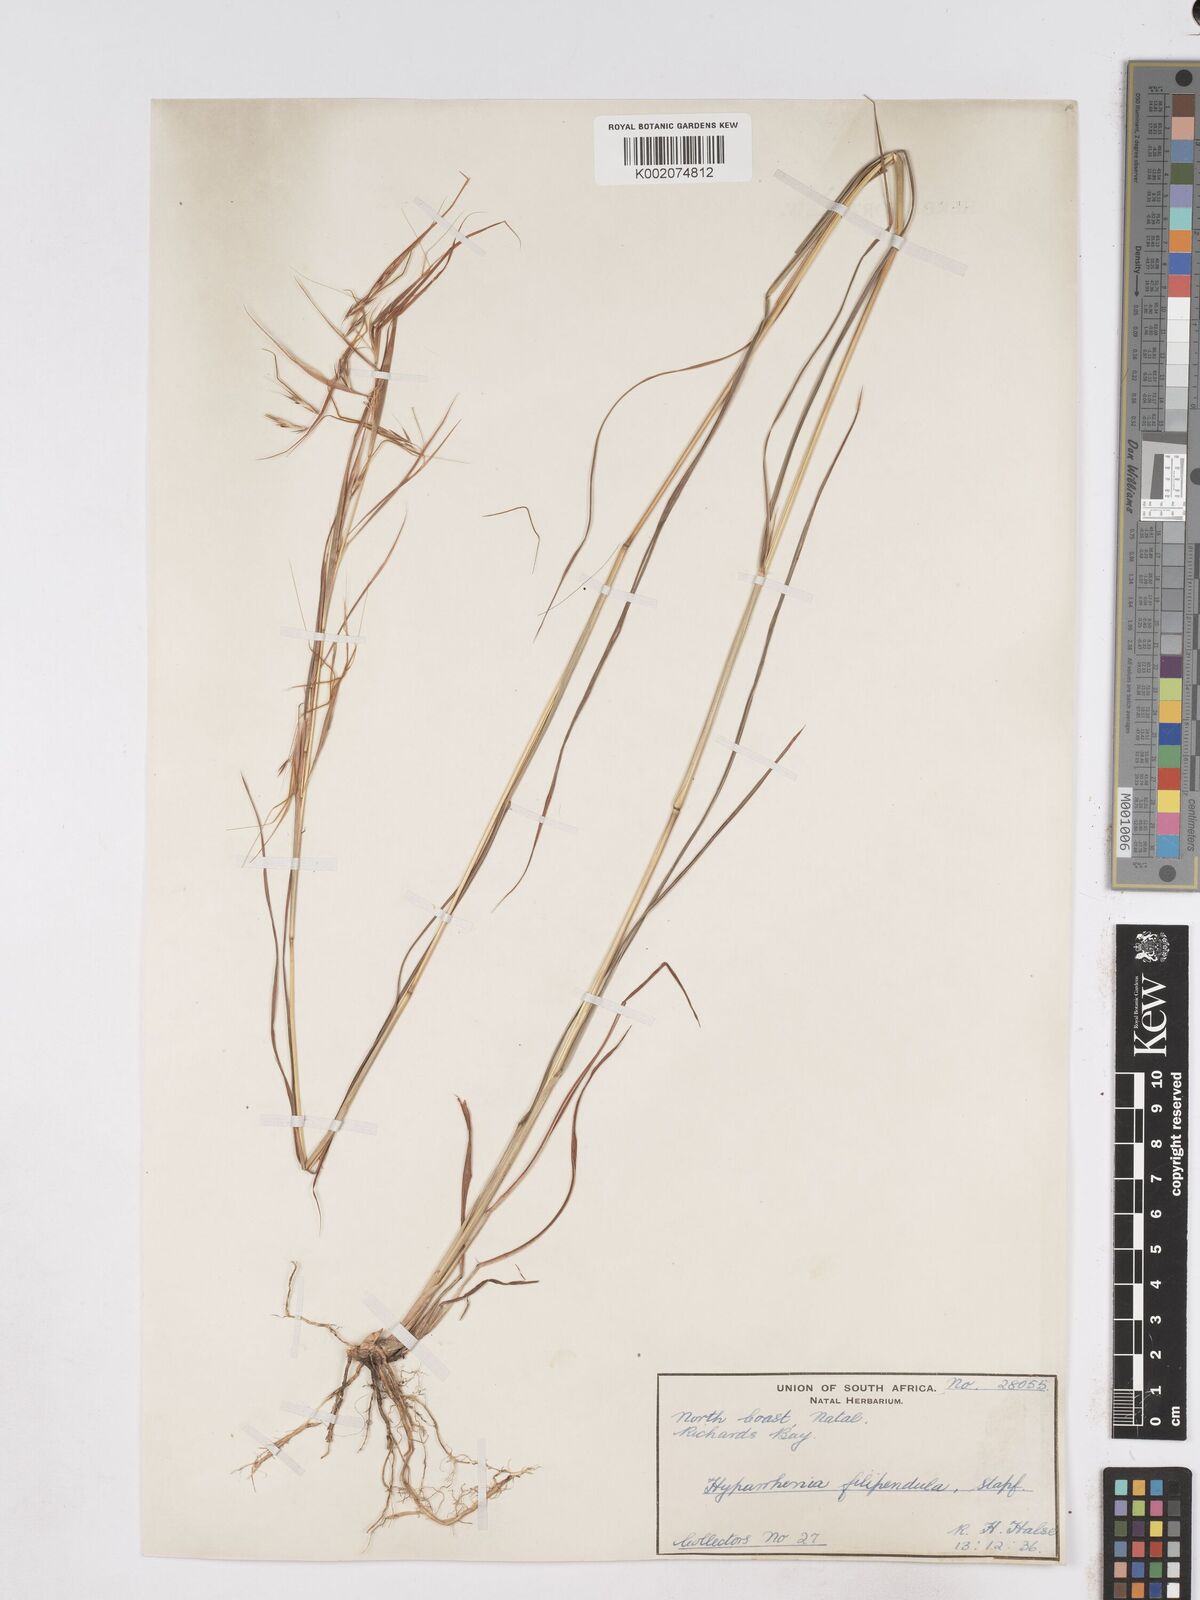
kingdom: Plantae
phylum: Tracheophyta
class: Liliopsida
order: Poales
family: Poaceae
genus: Hyparrhenia
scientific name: Hyparrhenia filipendula
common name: Tambookie grass
